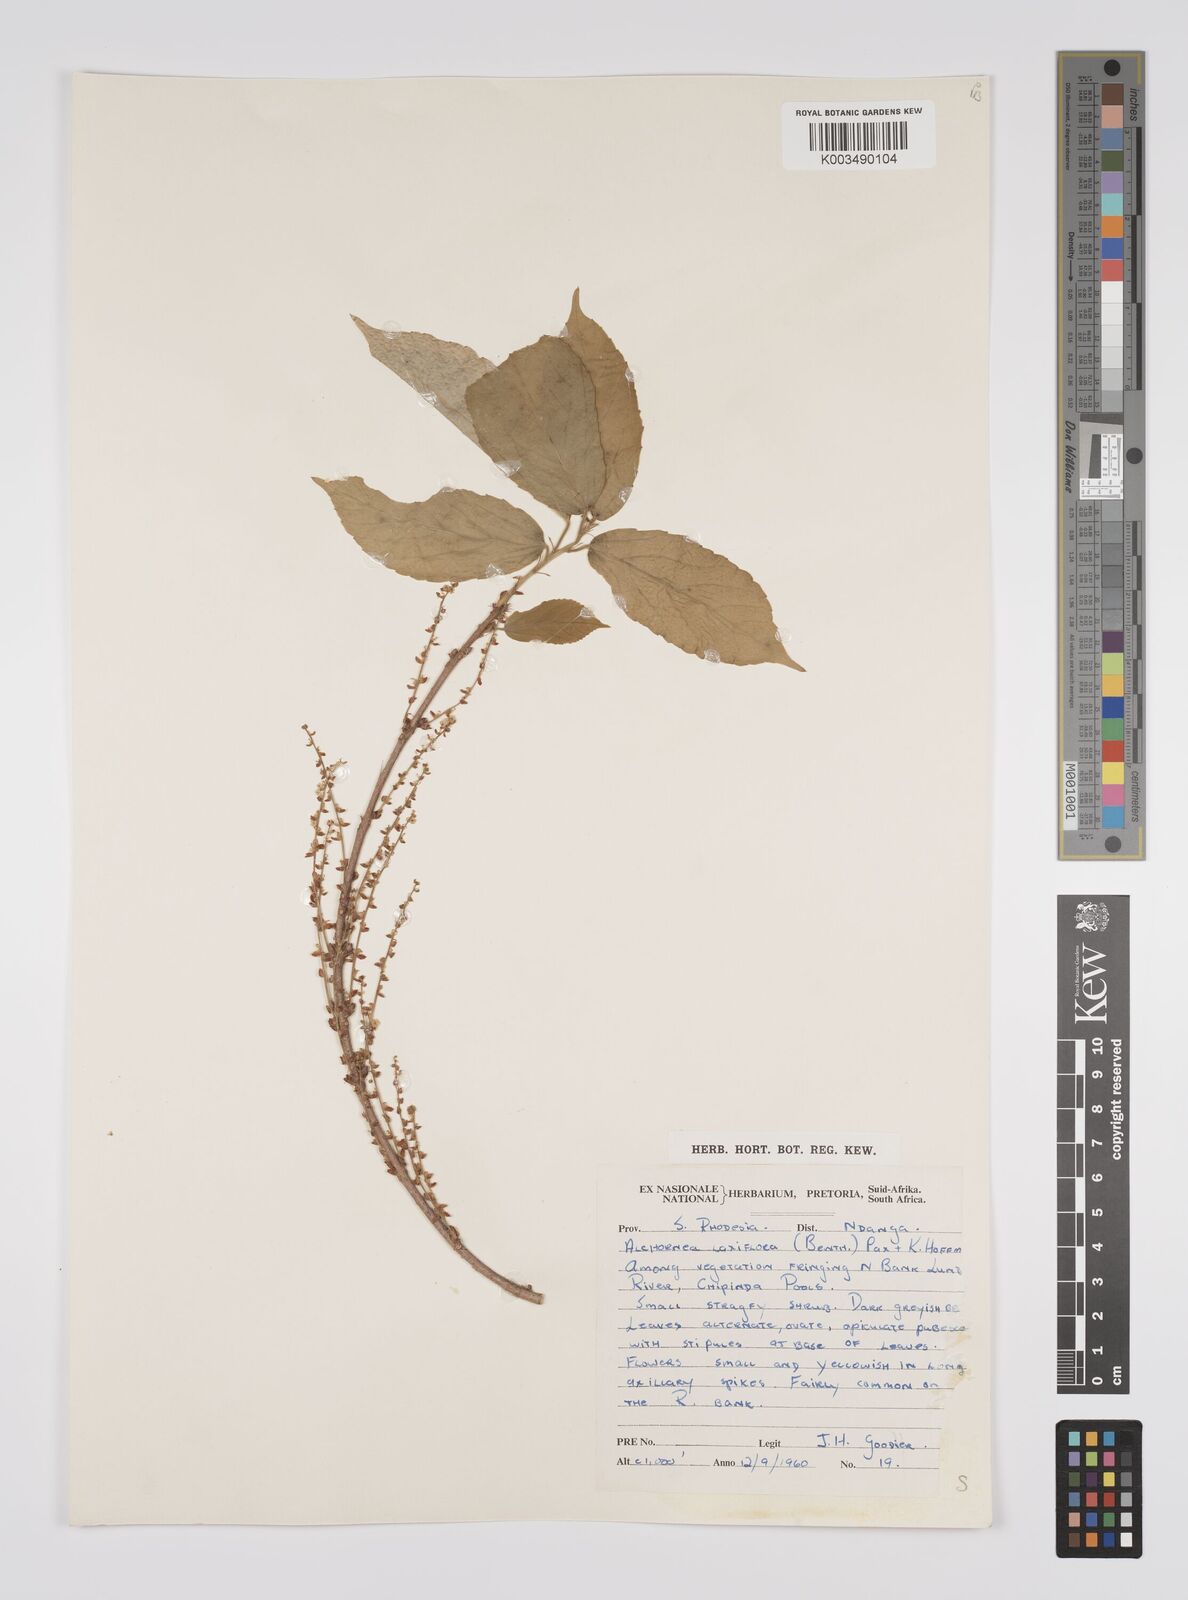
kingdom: Plantae
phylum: Tracheophyta
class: Magnoliopsida
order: Malpighiales
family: Euphorbiaceae
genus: Alchornea
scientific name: Alchornea laxiflora
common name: Lowveld bead-string
